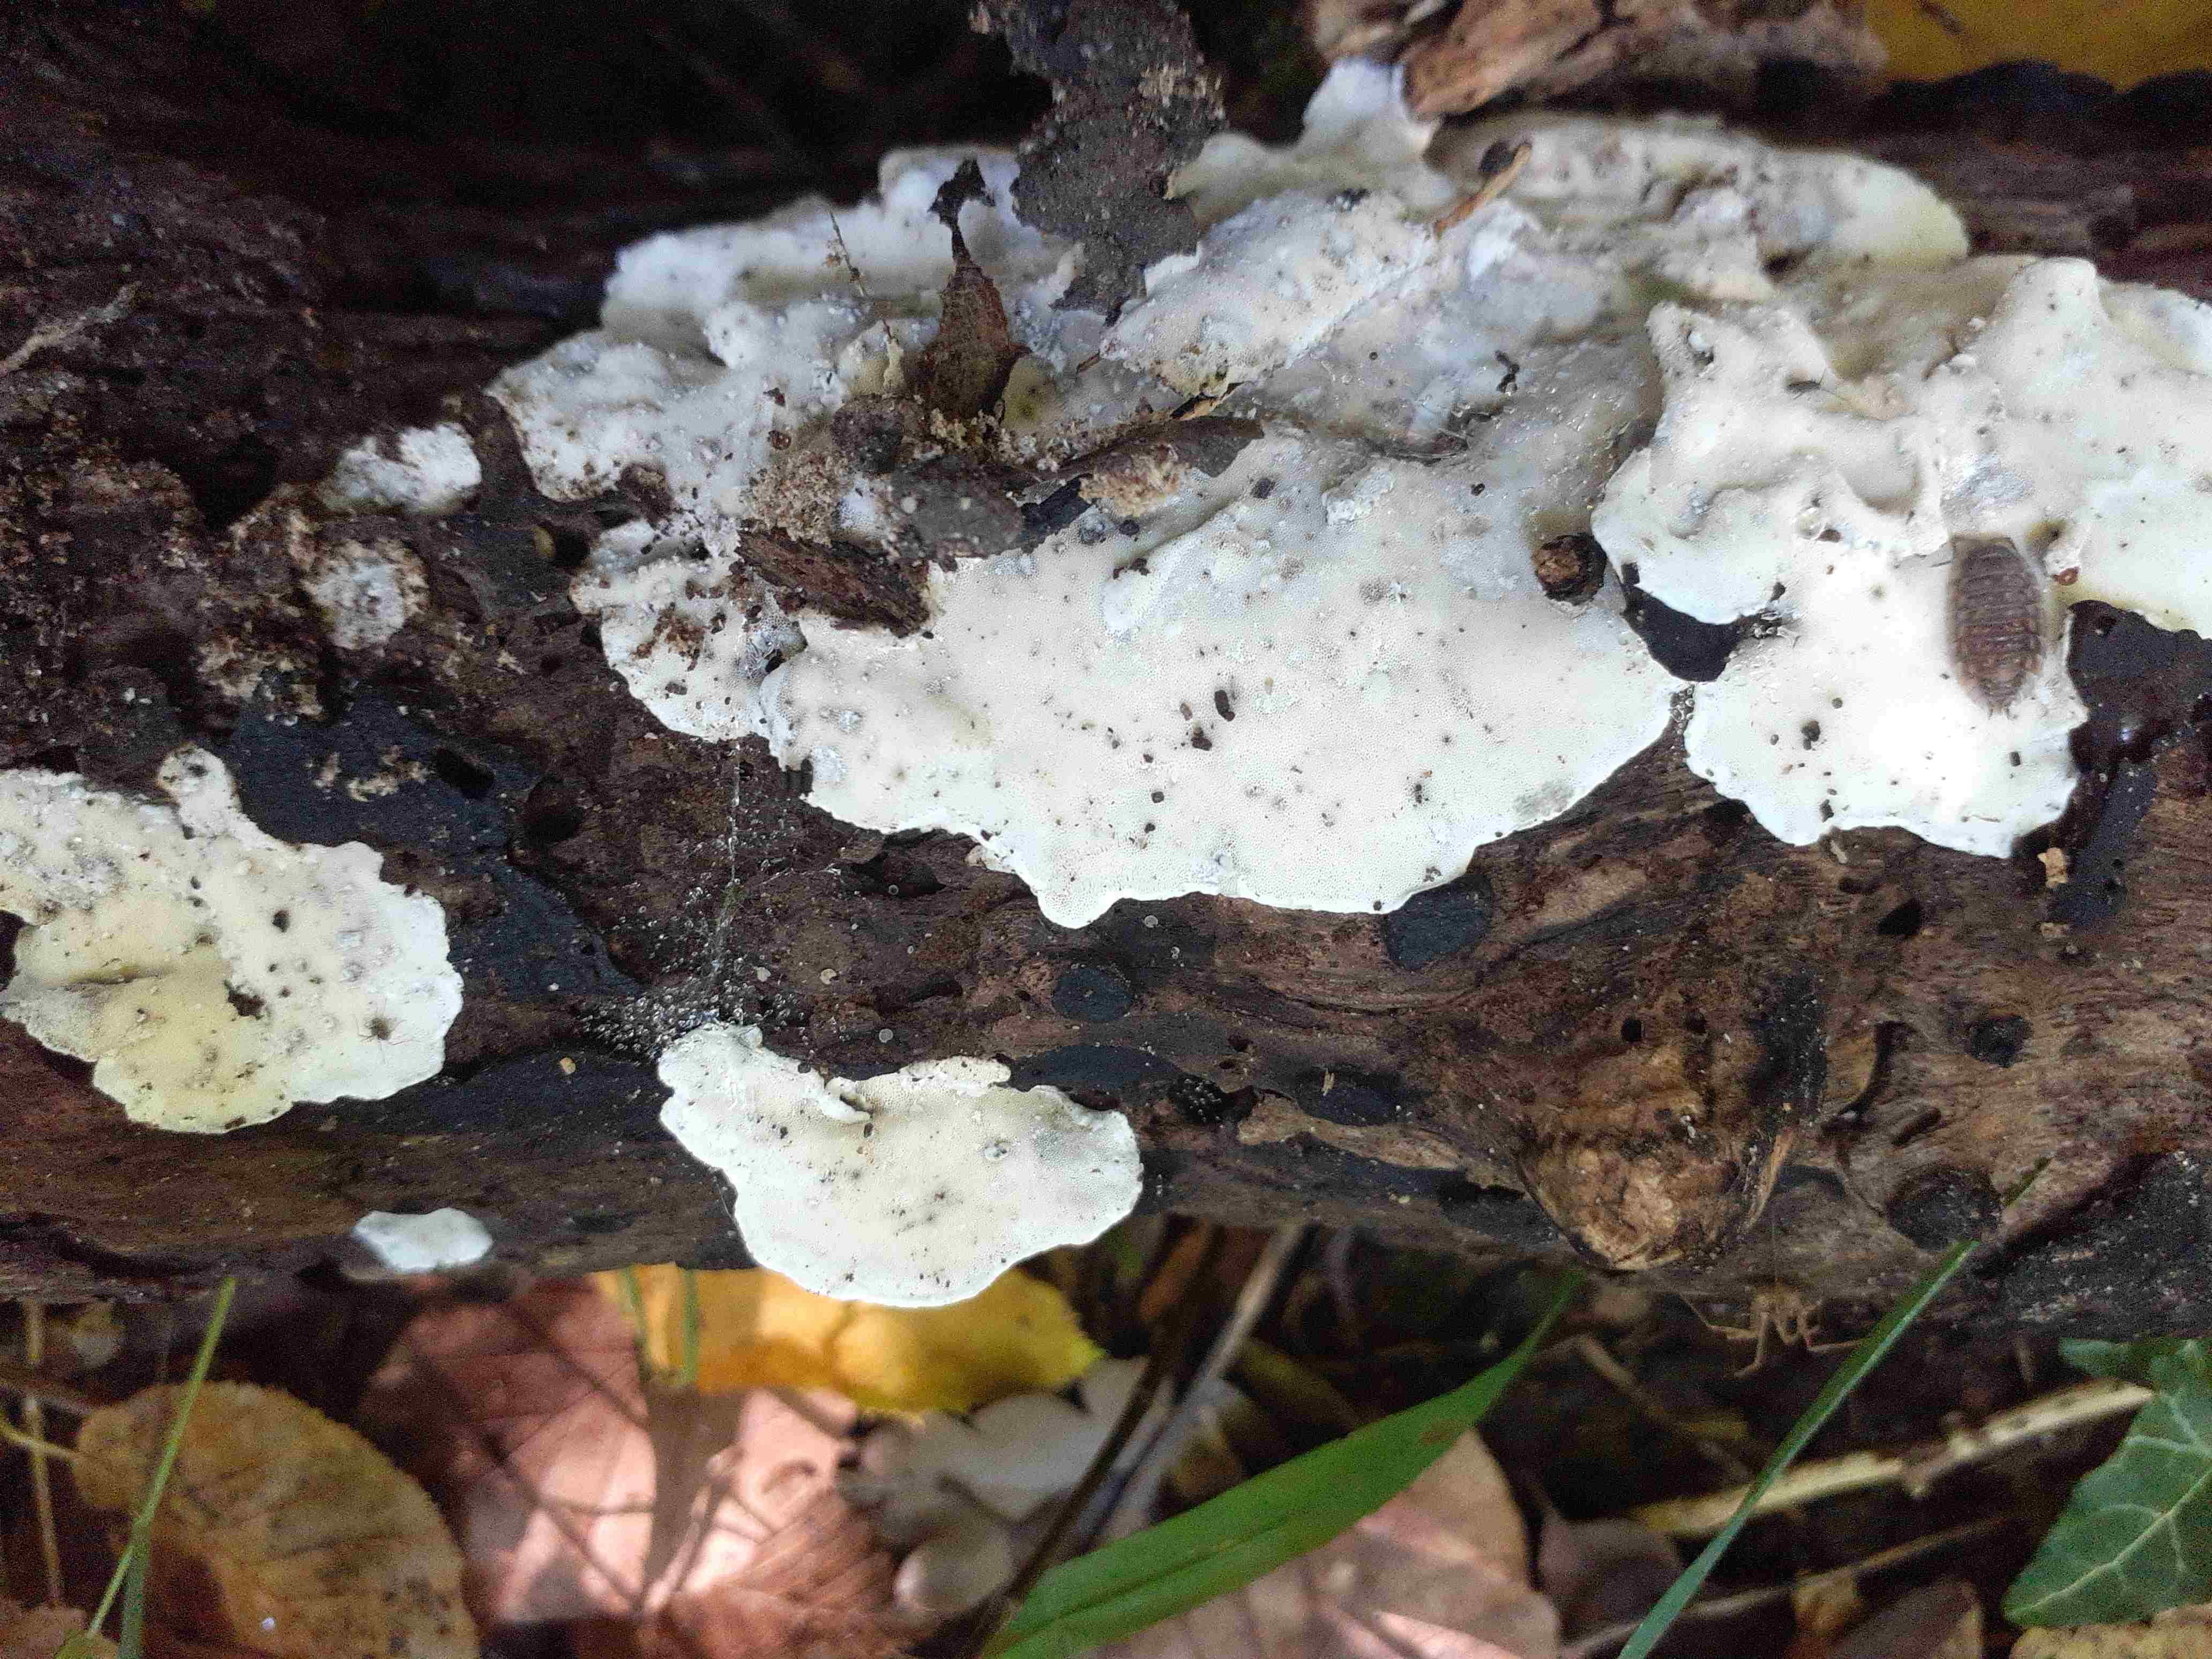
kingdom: Fungi
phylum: Basidiomycota
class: Agaricomycetes
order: Polyporales
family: Incrustoporiaceae
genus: Skeletocutis
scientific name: Skeletocutis nemoralis
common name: stor krystalporesvamp
